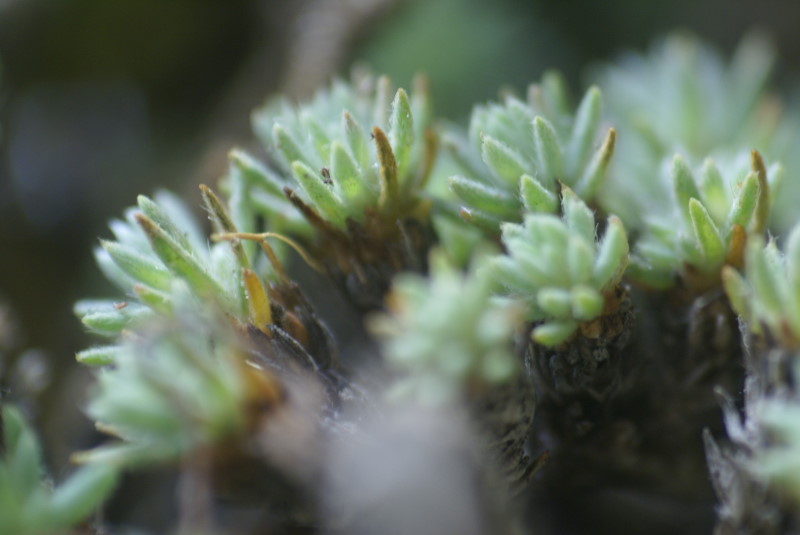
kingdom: Plantae
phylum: Tracheophyta
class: Magnoliopsida
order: Caryophyllales
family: Amaranthaceae
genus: Camphorosma
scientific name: Camphorosma monspeliaca
